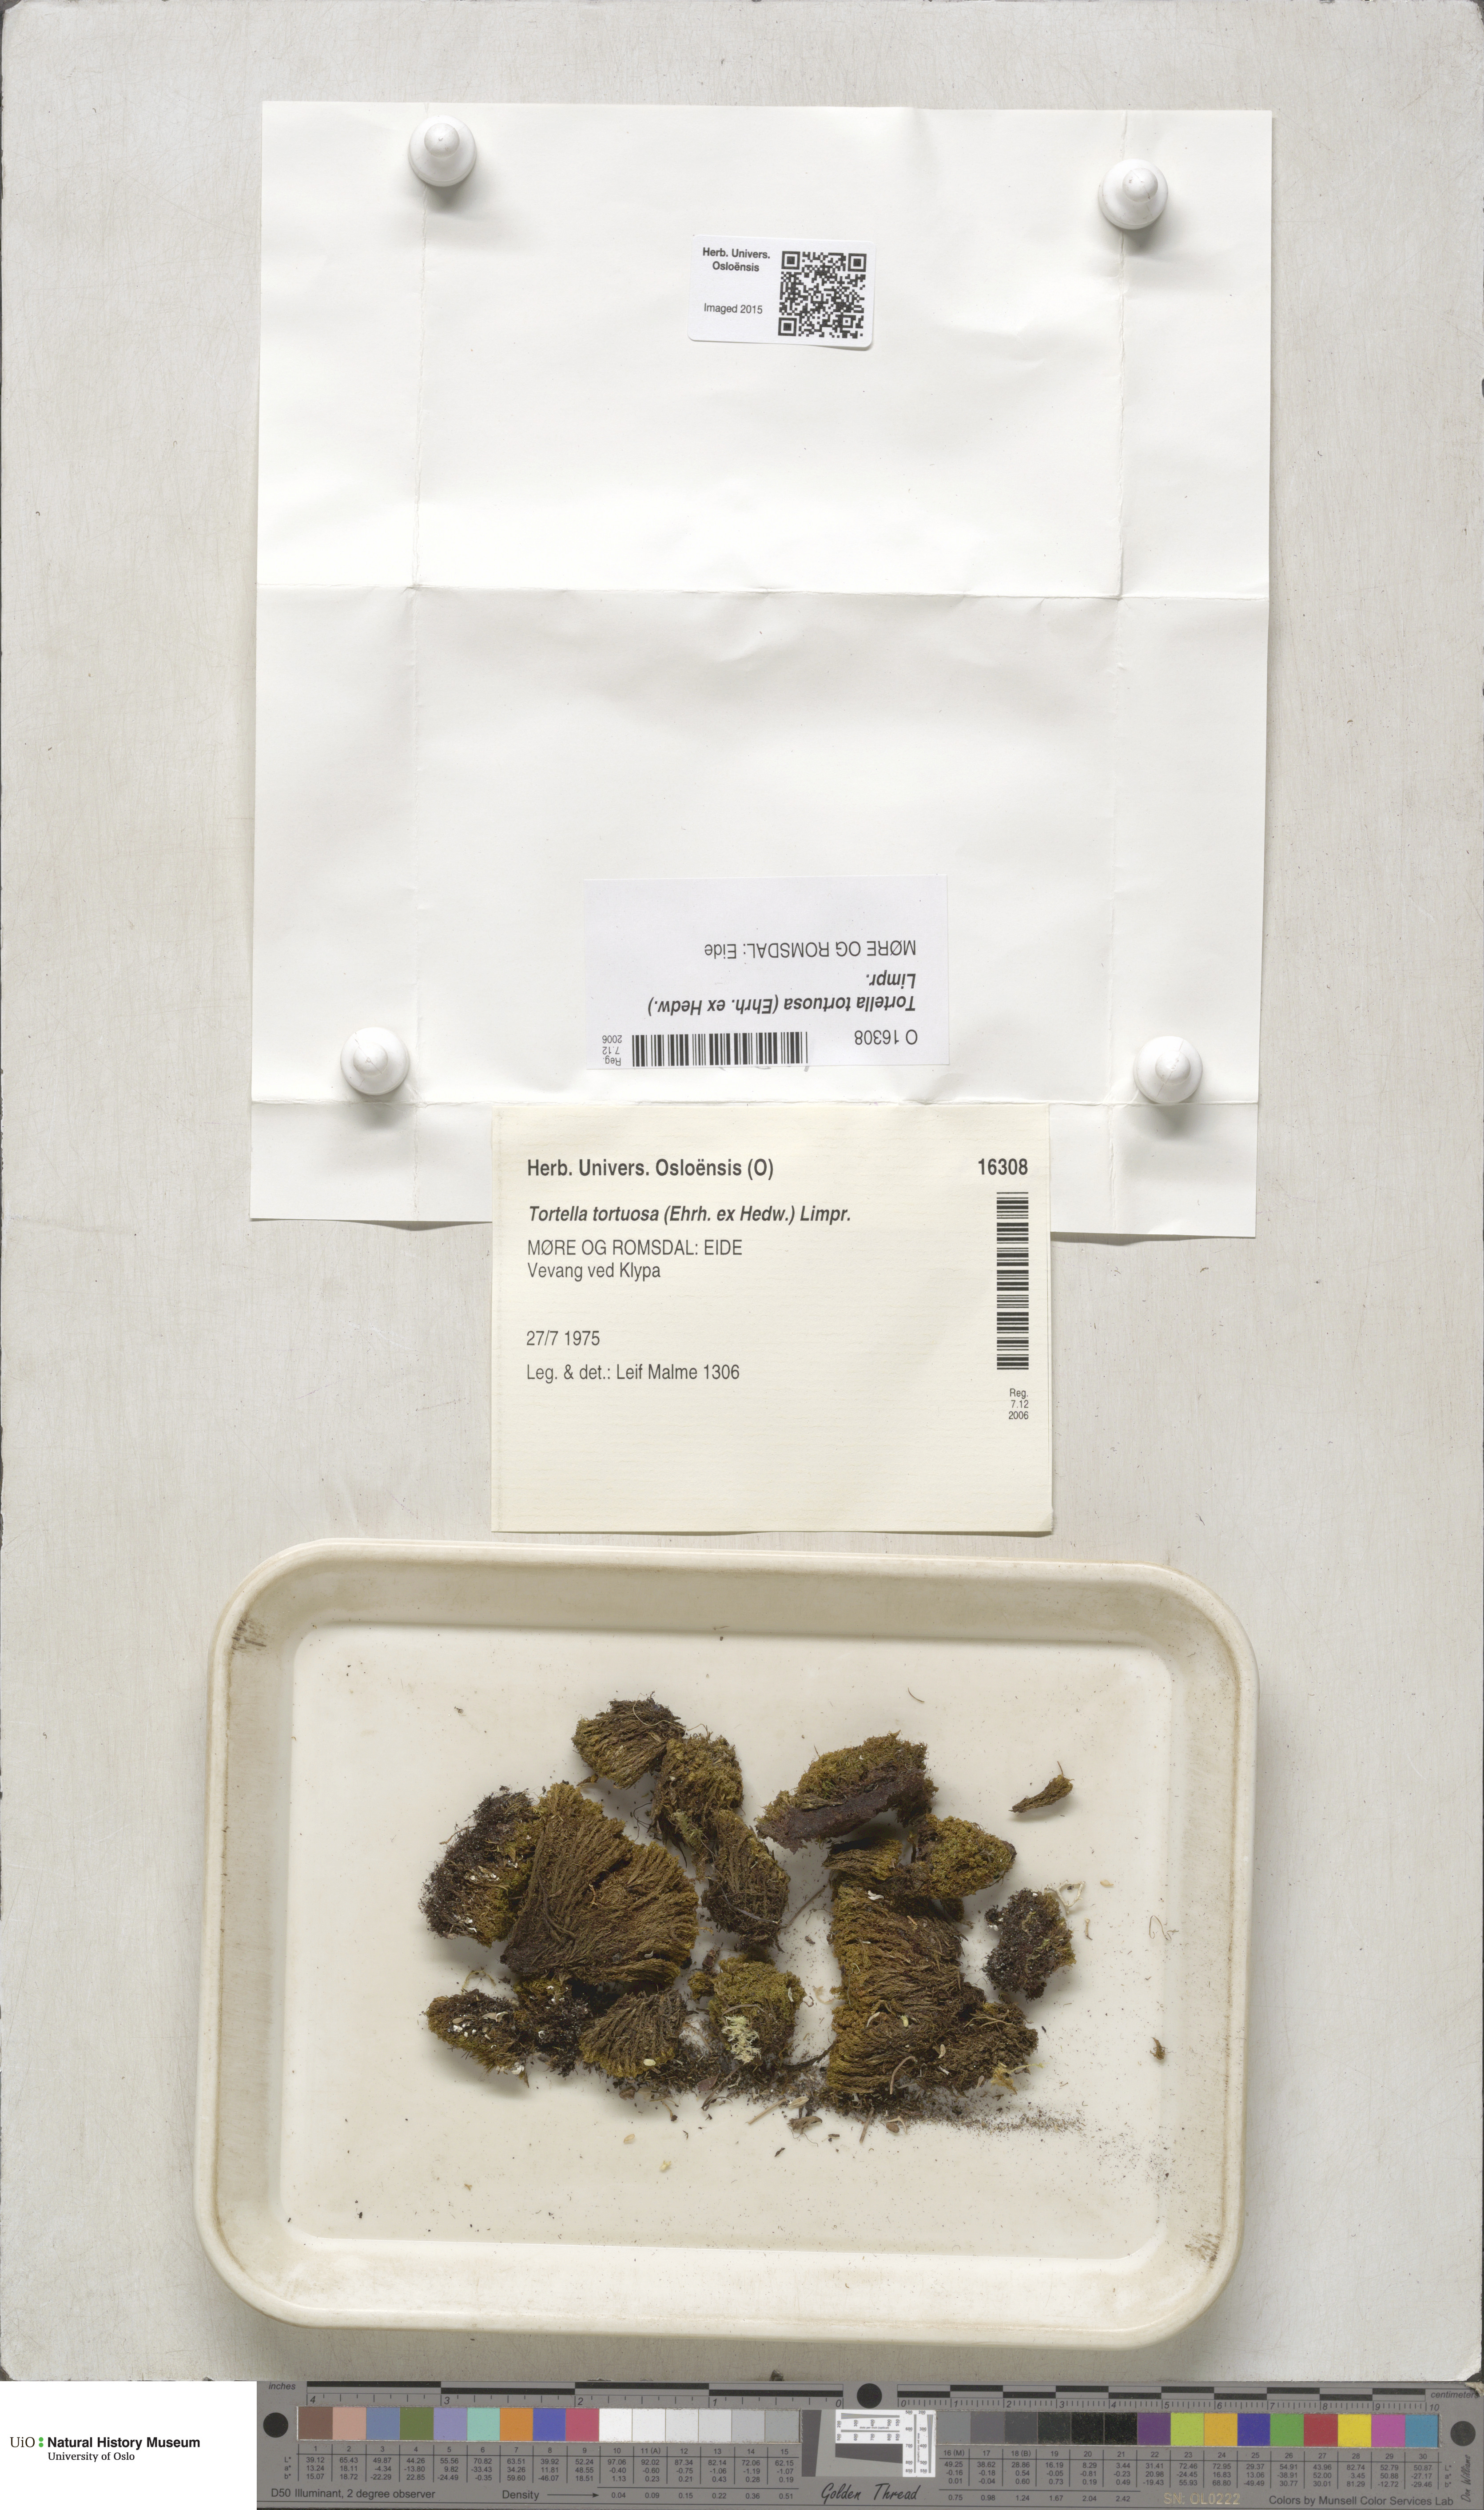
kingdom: Plantae
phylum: Bryophyta
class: Bryopsida
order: Pottiales
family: Pottiaceae
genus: Tortella
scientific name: Tortella tortuosa
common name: Frizzled crisp moss
